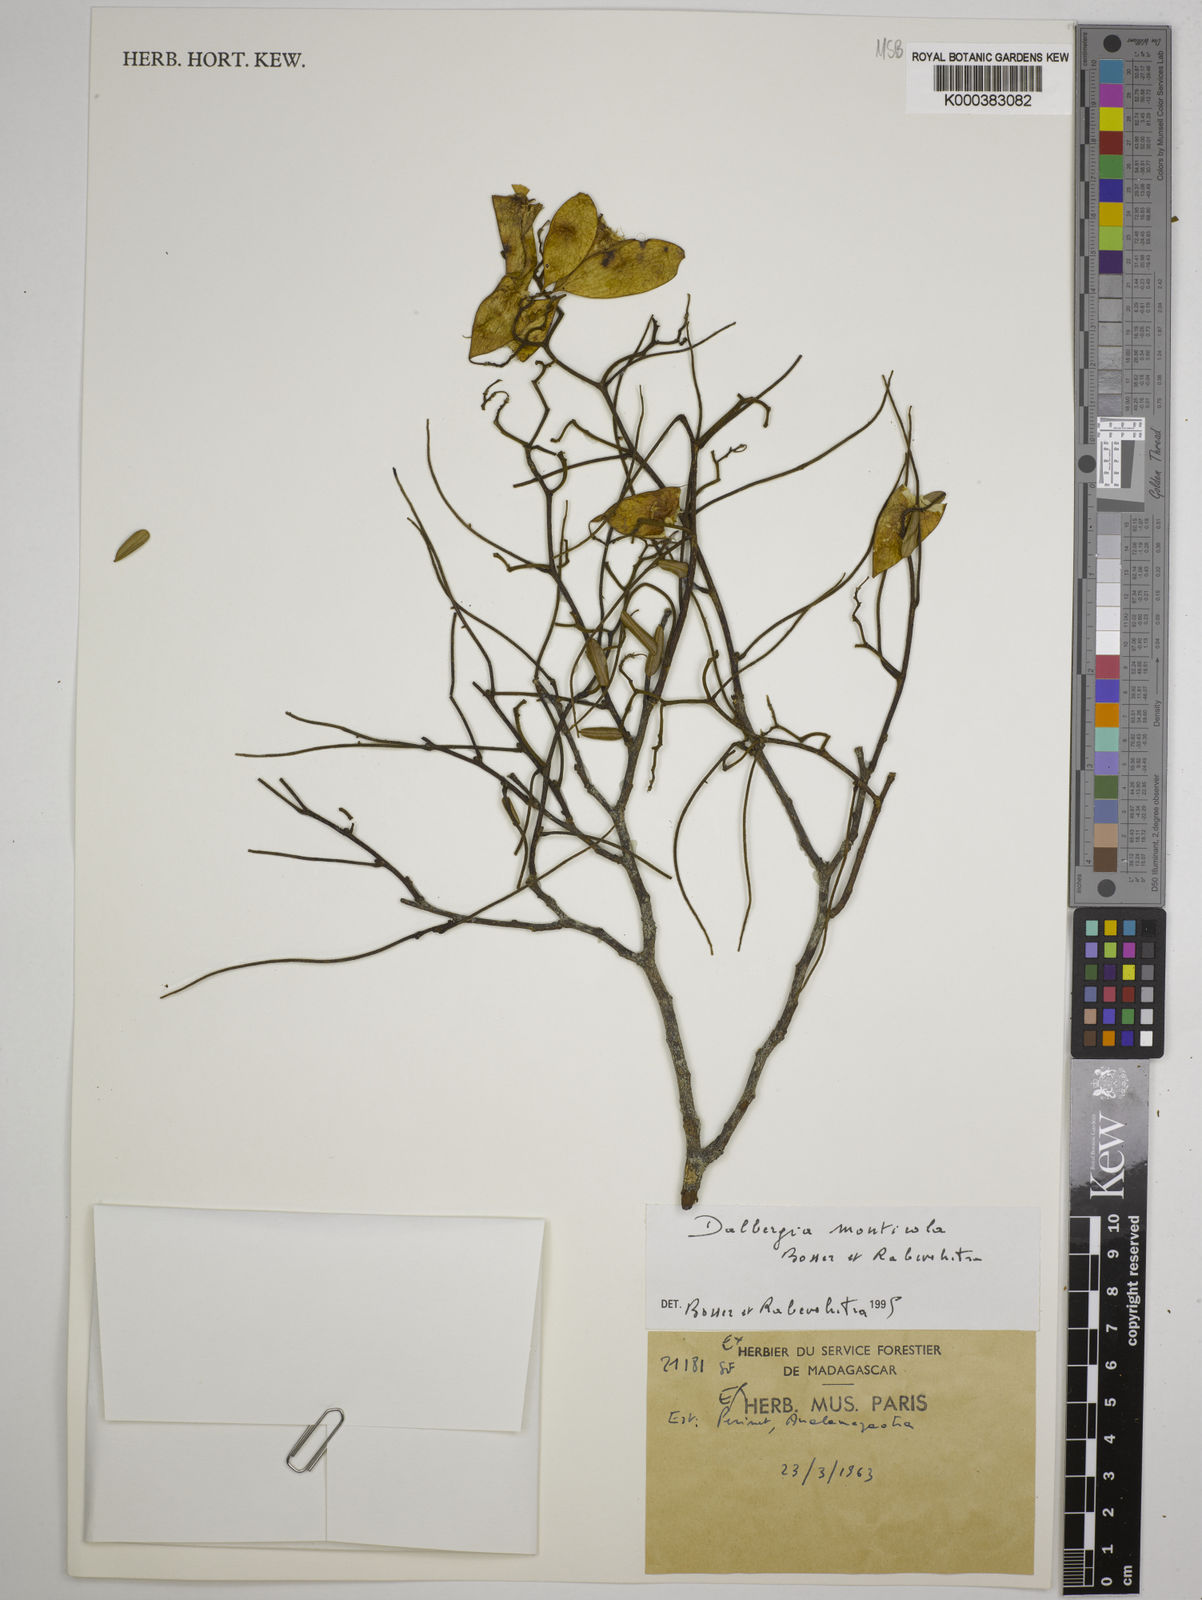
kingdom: Plantae
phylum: Tracheophyta
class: Magnoliopsida
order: Fabales
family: Fabaceae
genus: Dalbergia
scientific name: Dalbergia monticola
